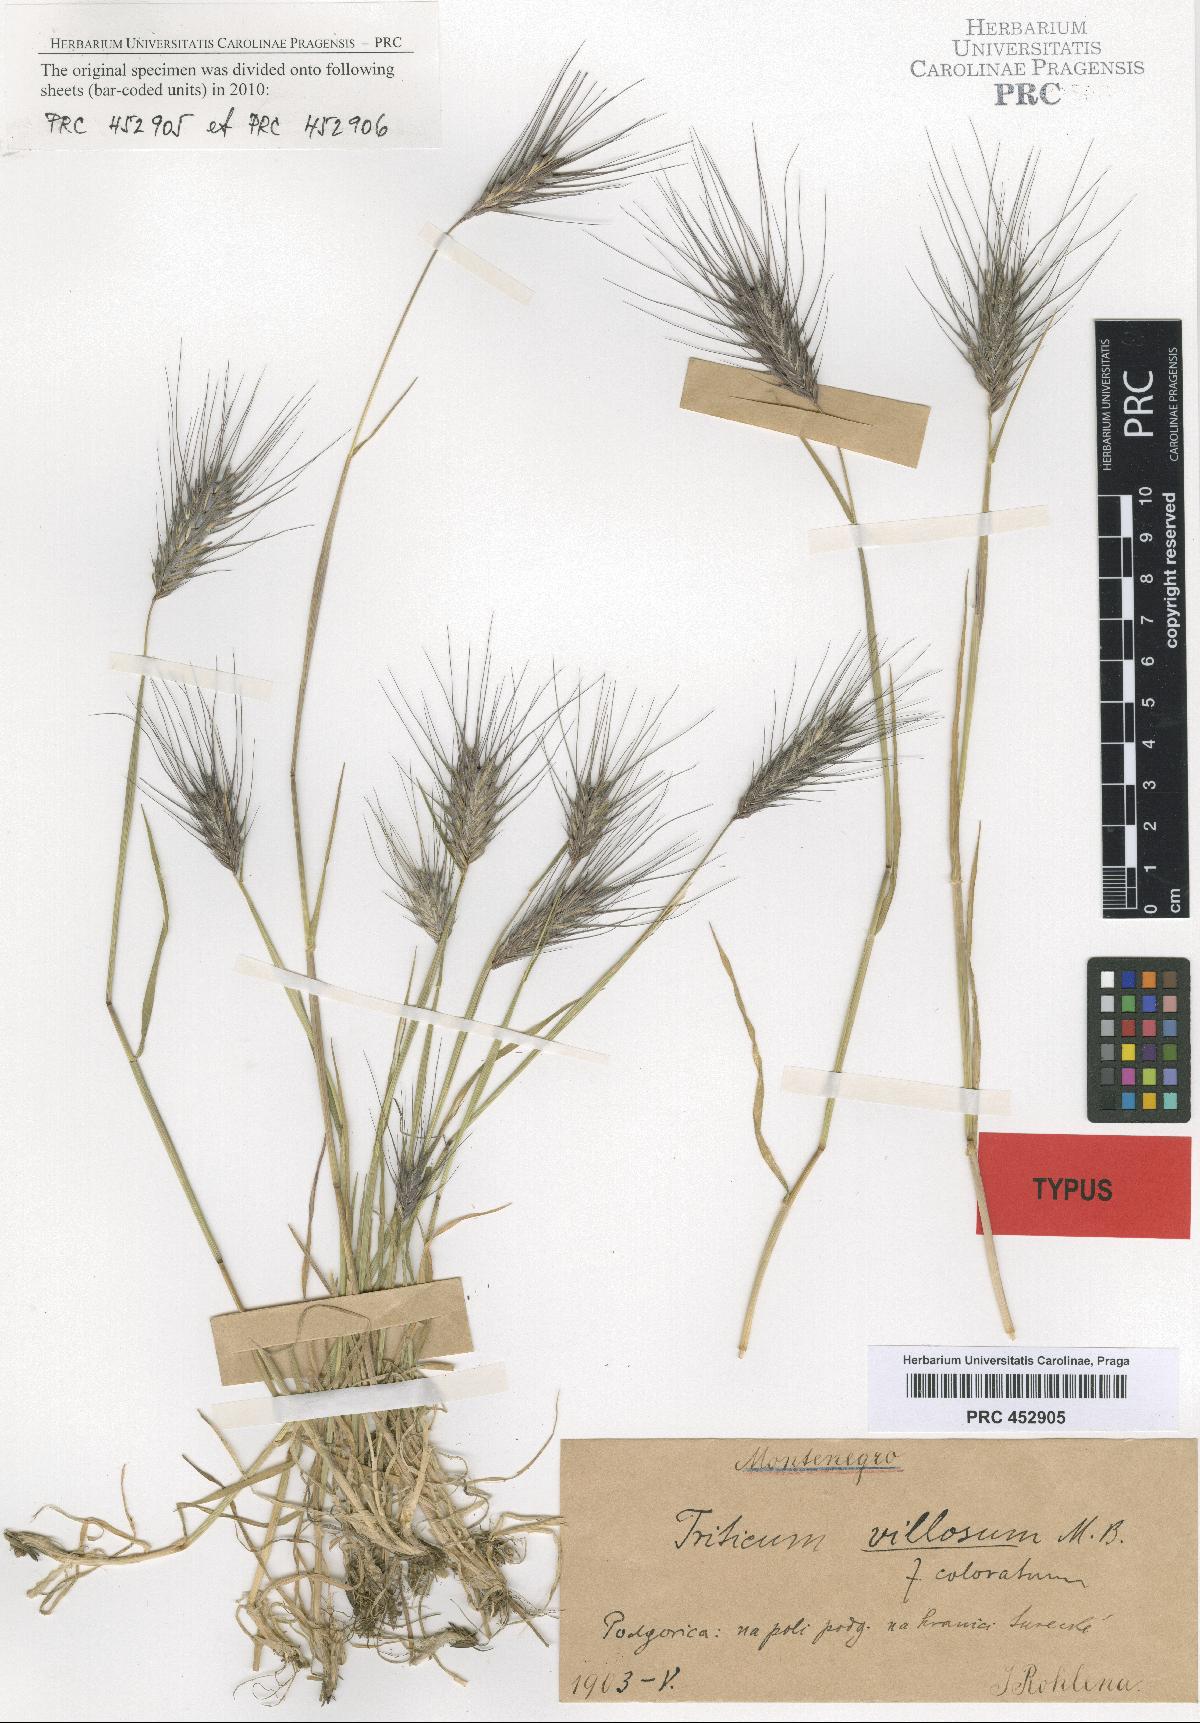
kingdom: Plantae
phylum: Tracheophyta
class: Liliopsida
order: Poales
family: Poaceae
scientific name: Poaceae
